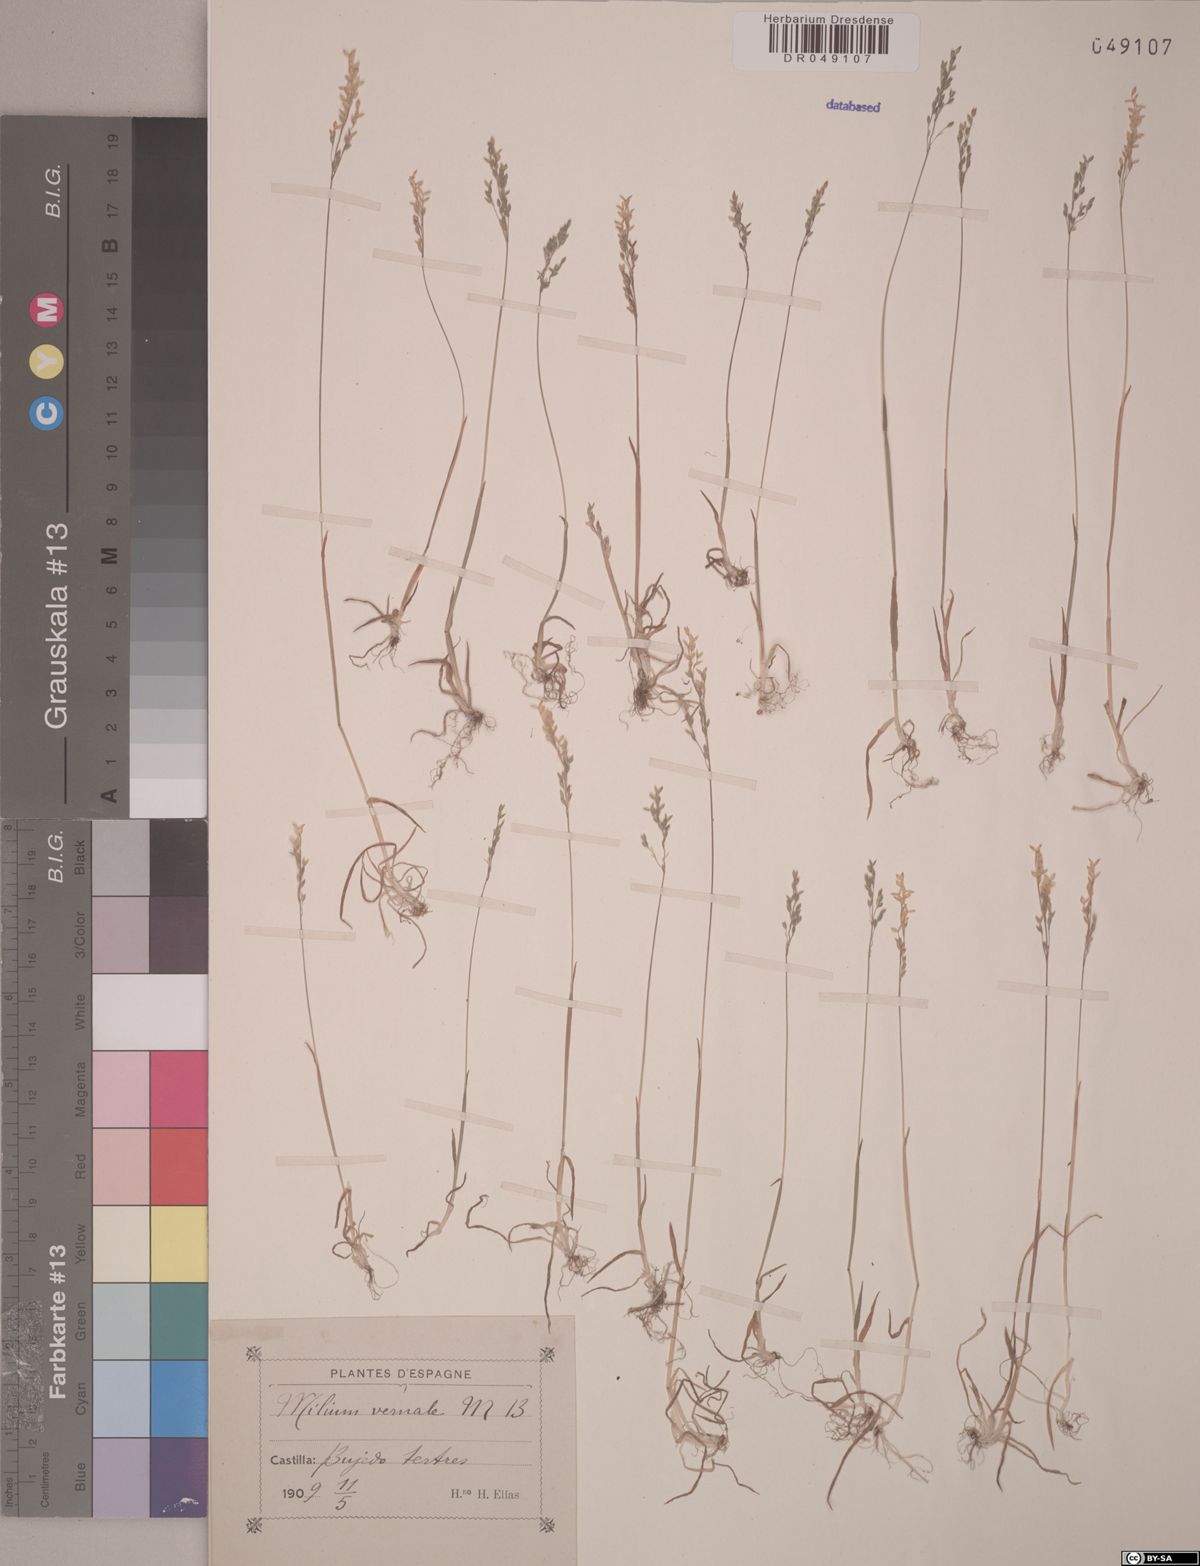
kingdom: Plantae
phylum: Tracheophyta
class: Liliopsida
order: Poales
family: Poaceae
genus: Milium
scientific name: Milium vernale
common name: Early millet
